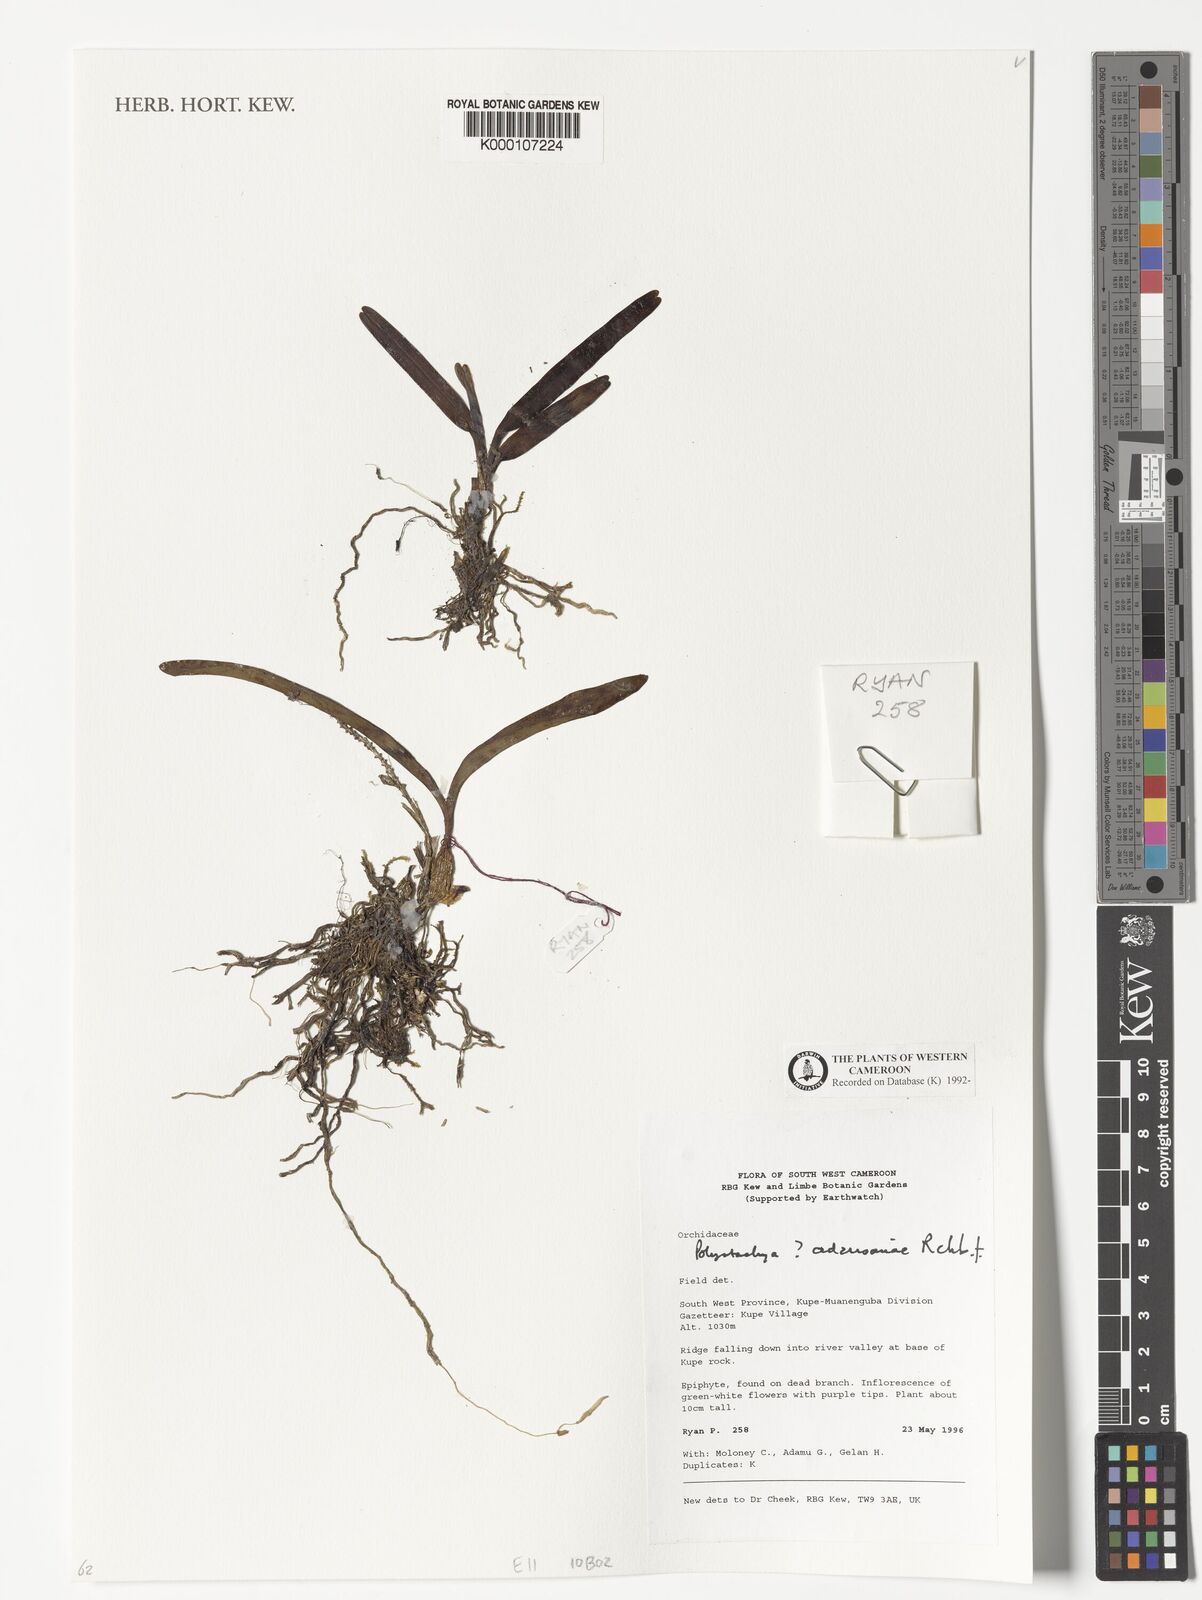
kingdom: Plantae
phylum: Tracheophyta
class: Liliopsida
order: Asparagales
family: Orchidaceae
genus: Polystachya
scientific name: Polystachya adansoniae
